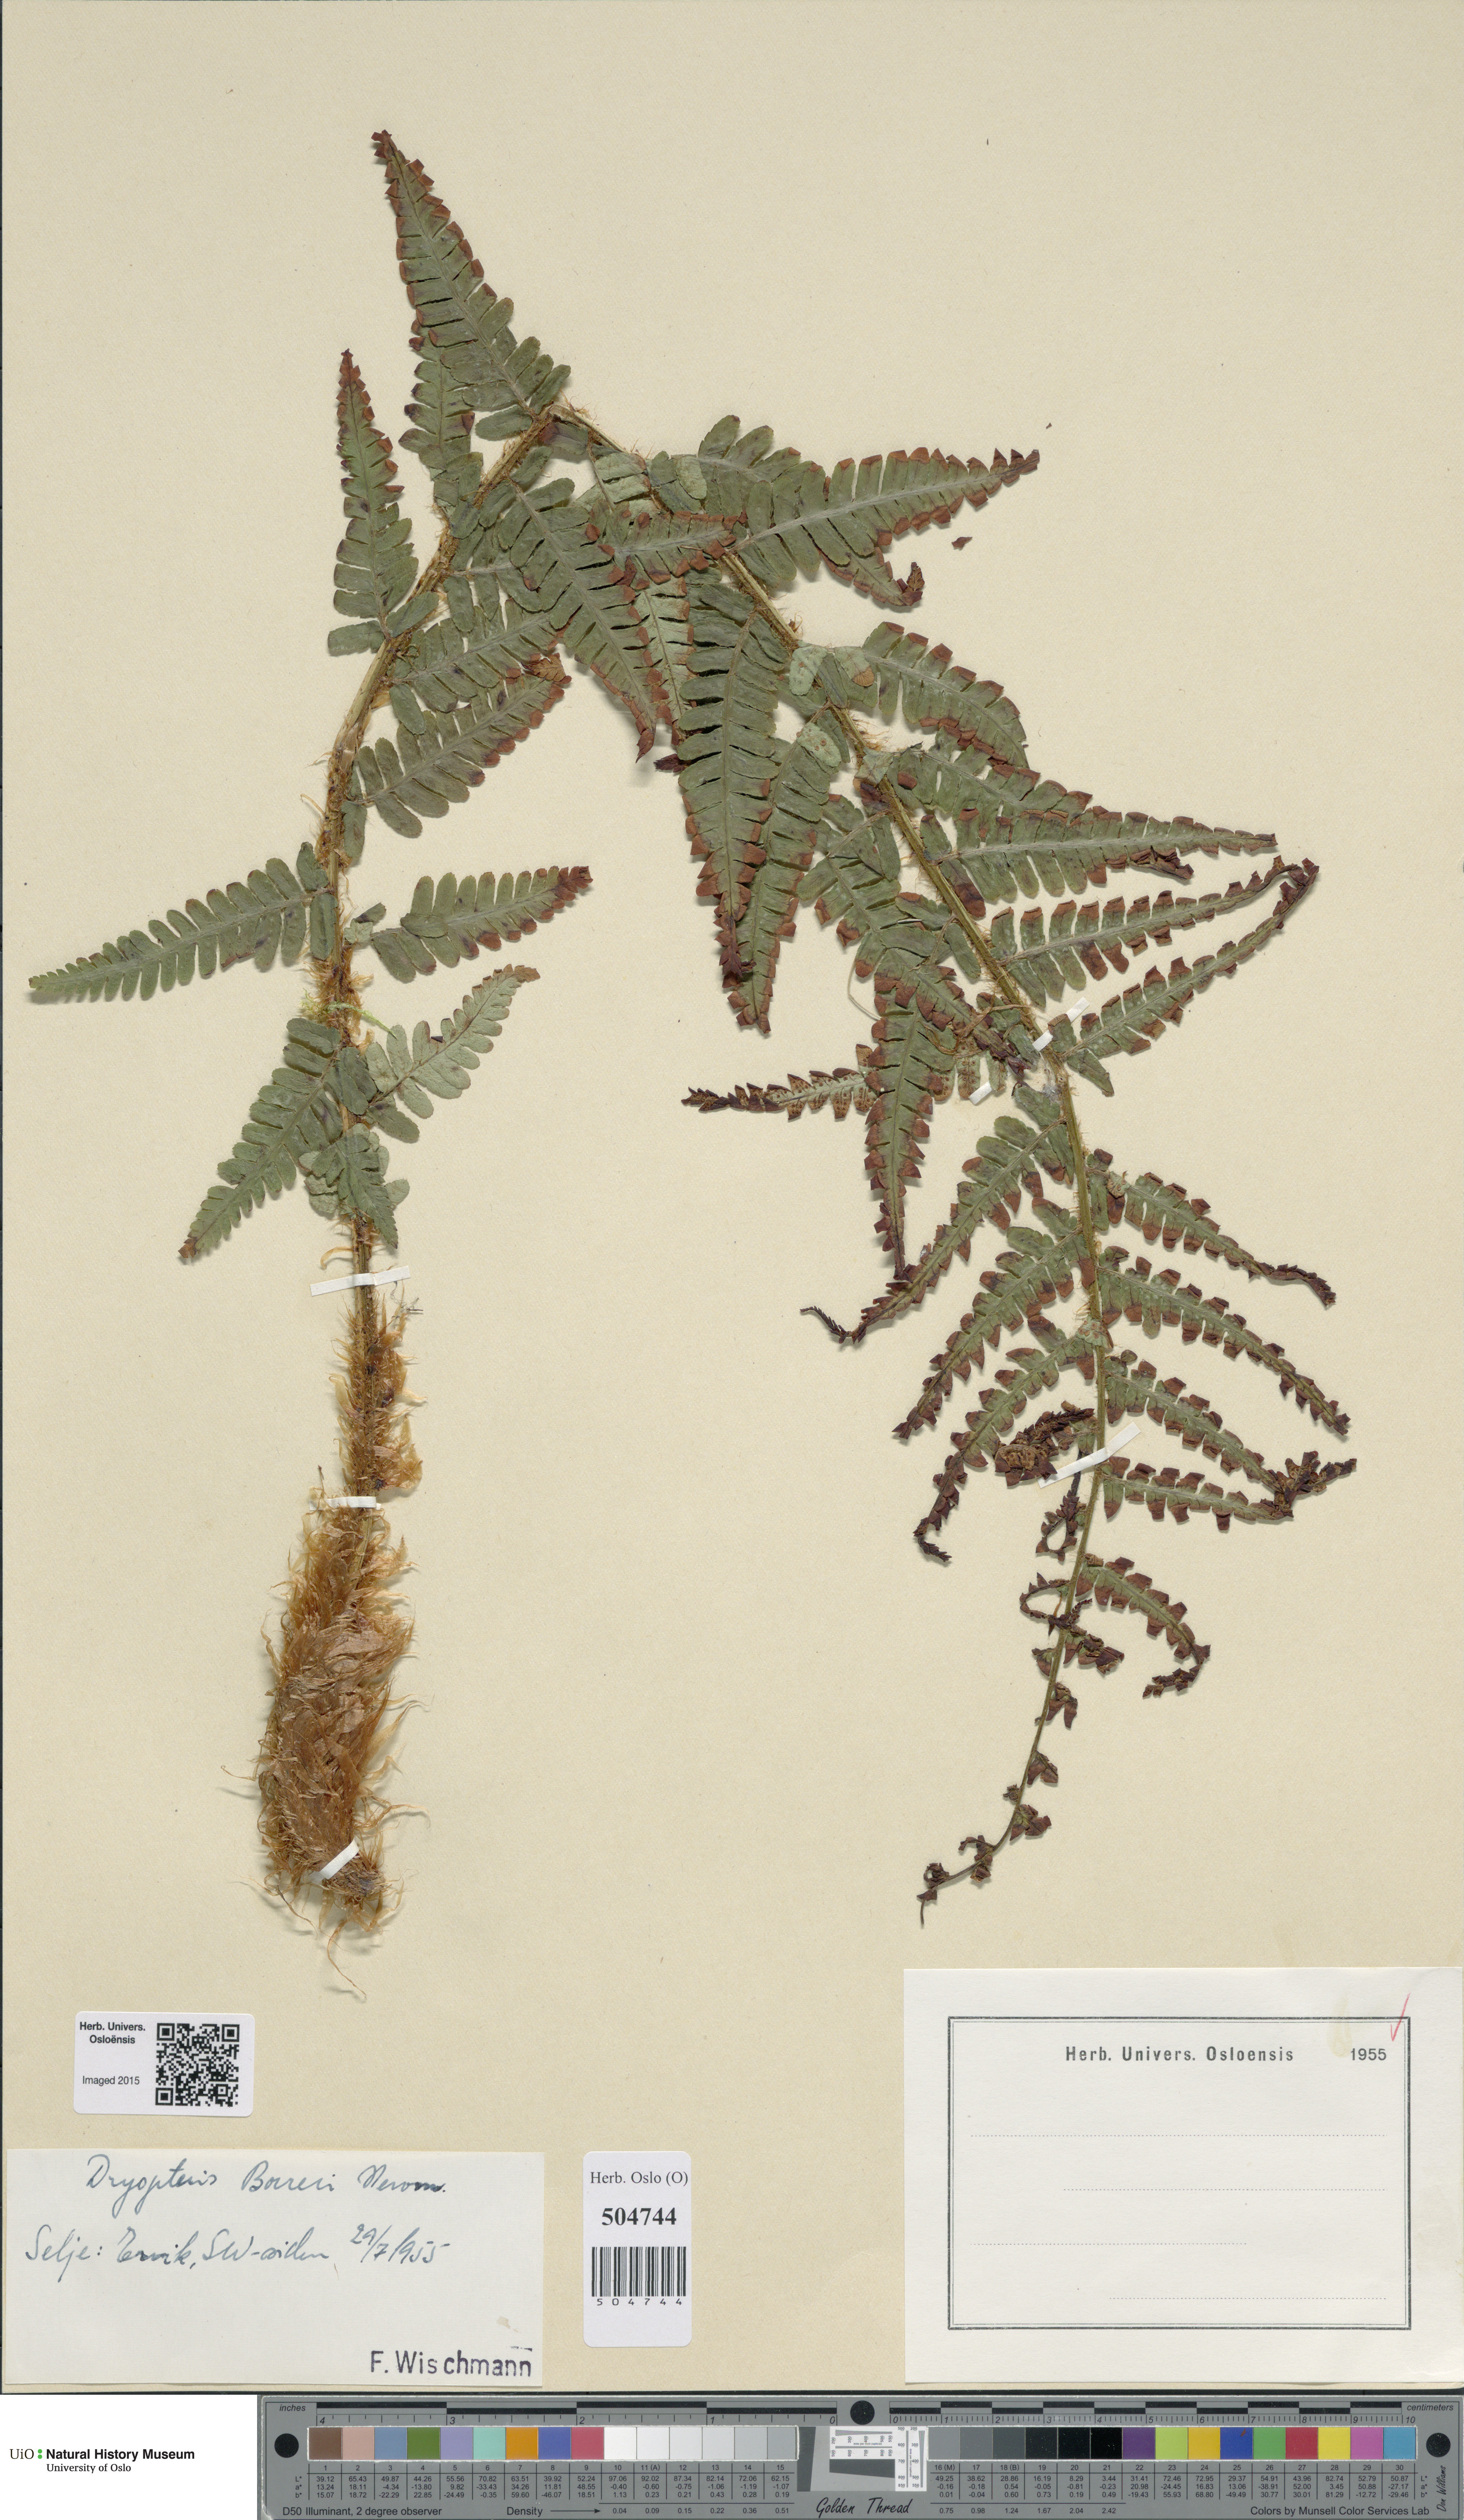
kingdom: Plantae
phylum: Tracheophyta
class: Polypodiopsida
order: Polypodiales
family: Dryopteridaceae
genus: Dryopteris
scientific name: Dryopteris borreri
